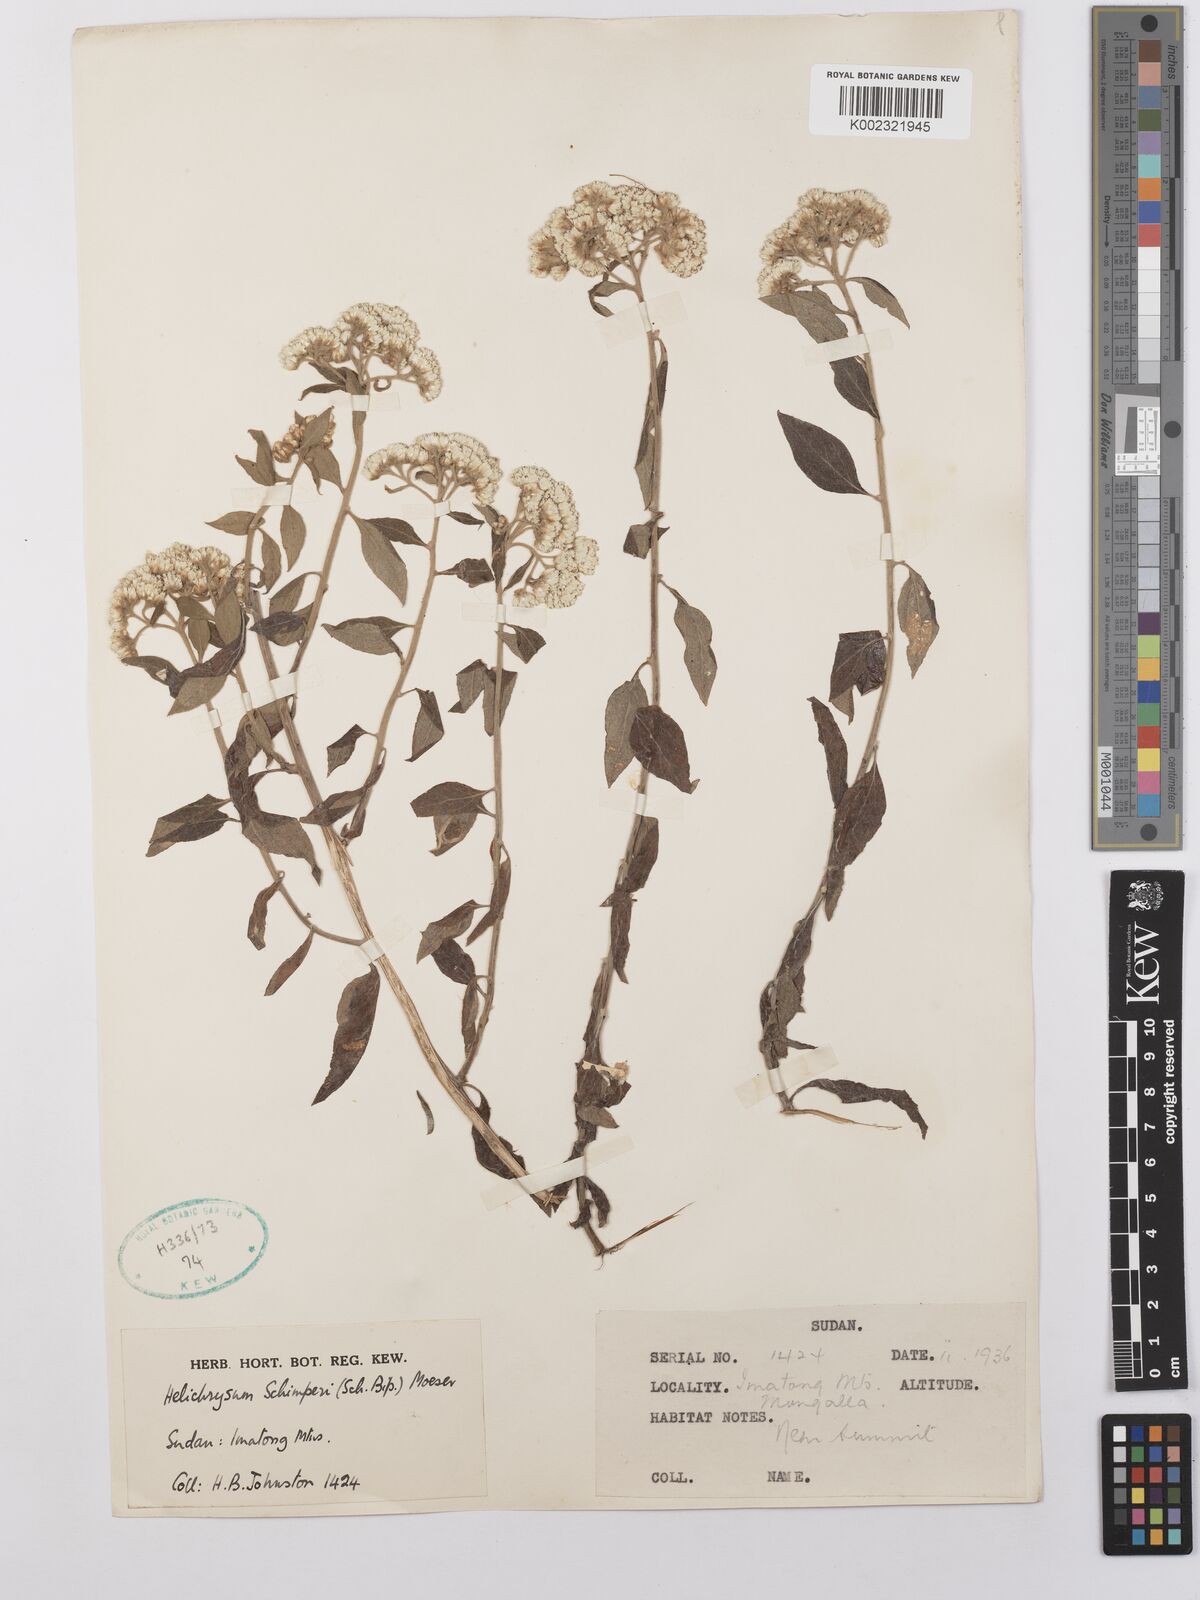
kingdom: Plantae
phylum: Tracheophyta
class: Magnoliopsida
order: Asterales
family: Asteraceae
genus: Helichrysum
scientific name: Helichrysum schimperi
